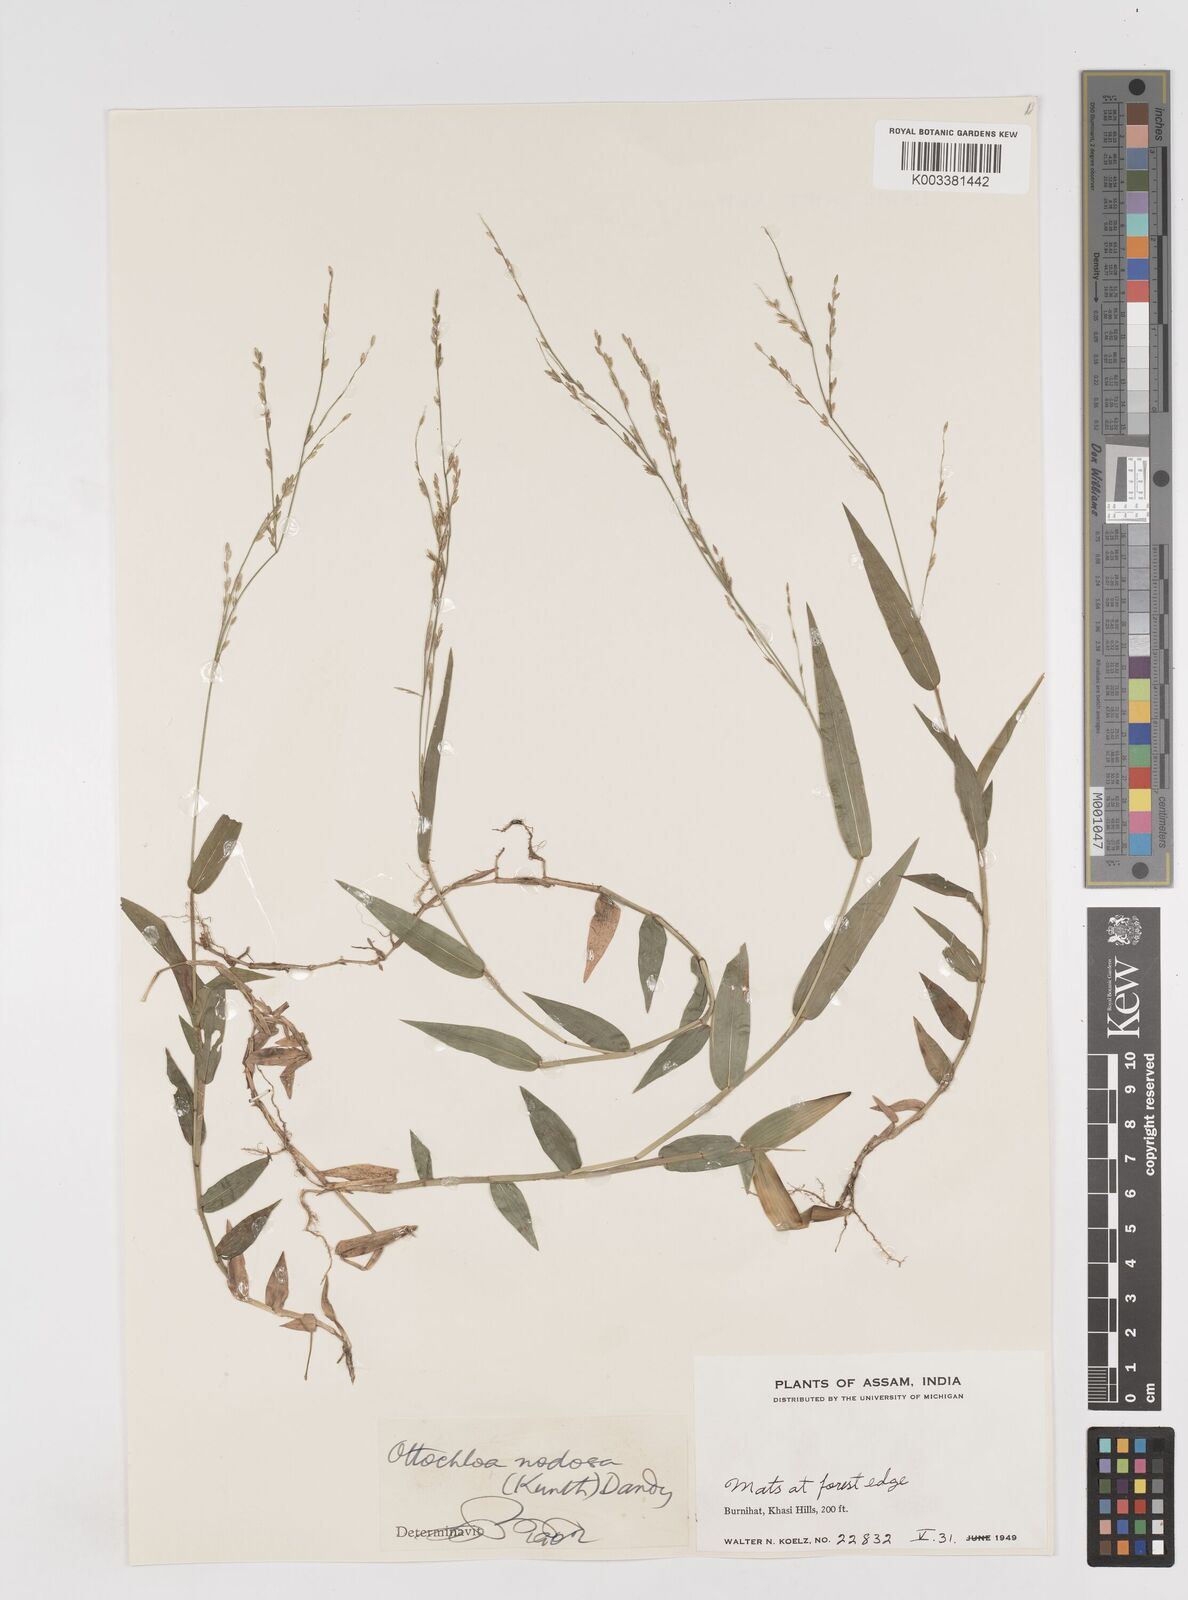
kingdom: Plantae
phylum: Tracheophyta
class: Liliopsida
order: Poales
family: Poaceae
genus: Ottochloa
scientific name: Ottochloa nodosa
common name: Slender-panic grass
